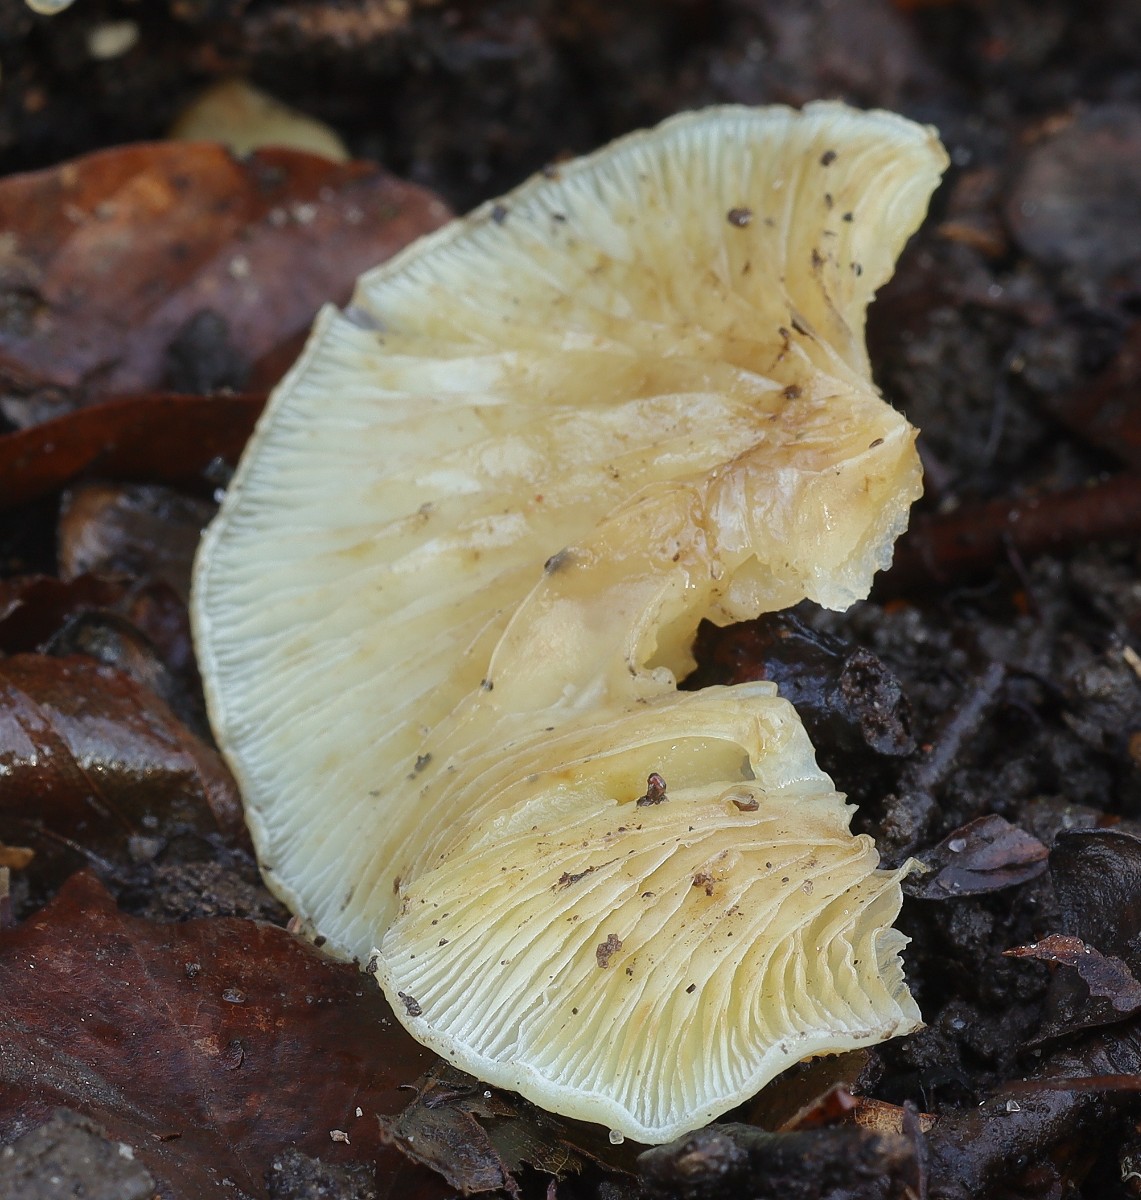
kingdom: Fungi
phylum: Basidiomycota
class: Agaricomycetes
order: Agaricales
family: Crepidotaceae
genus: Crepidotus
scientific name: Crepidotus mollis
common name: blød muslingesvamp
